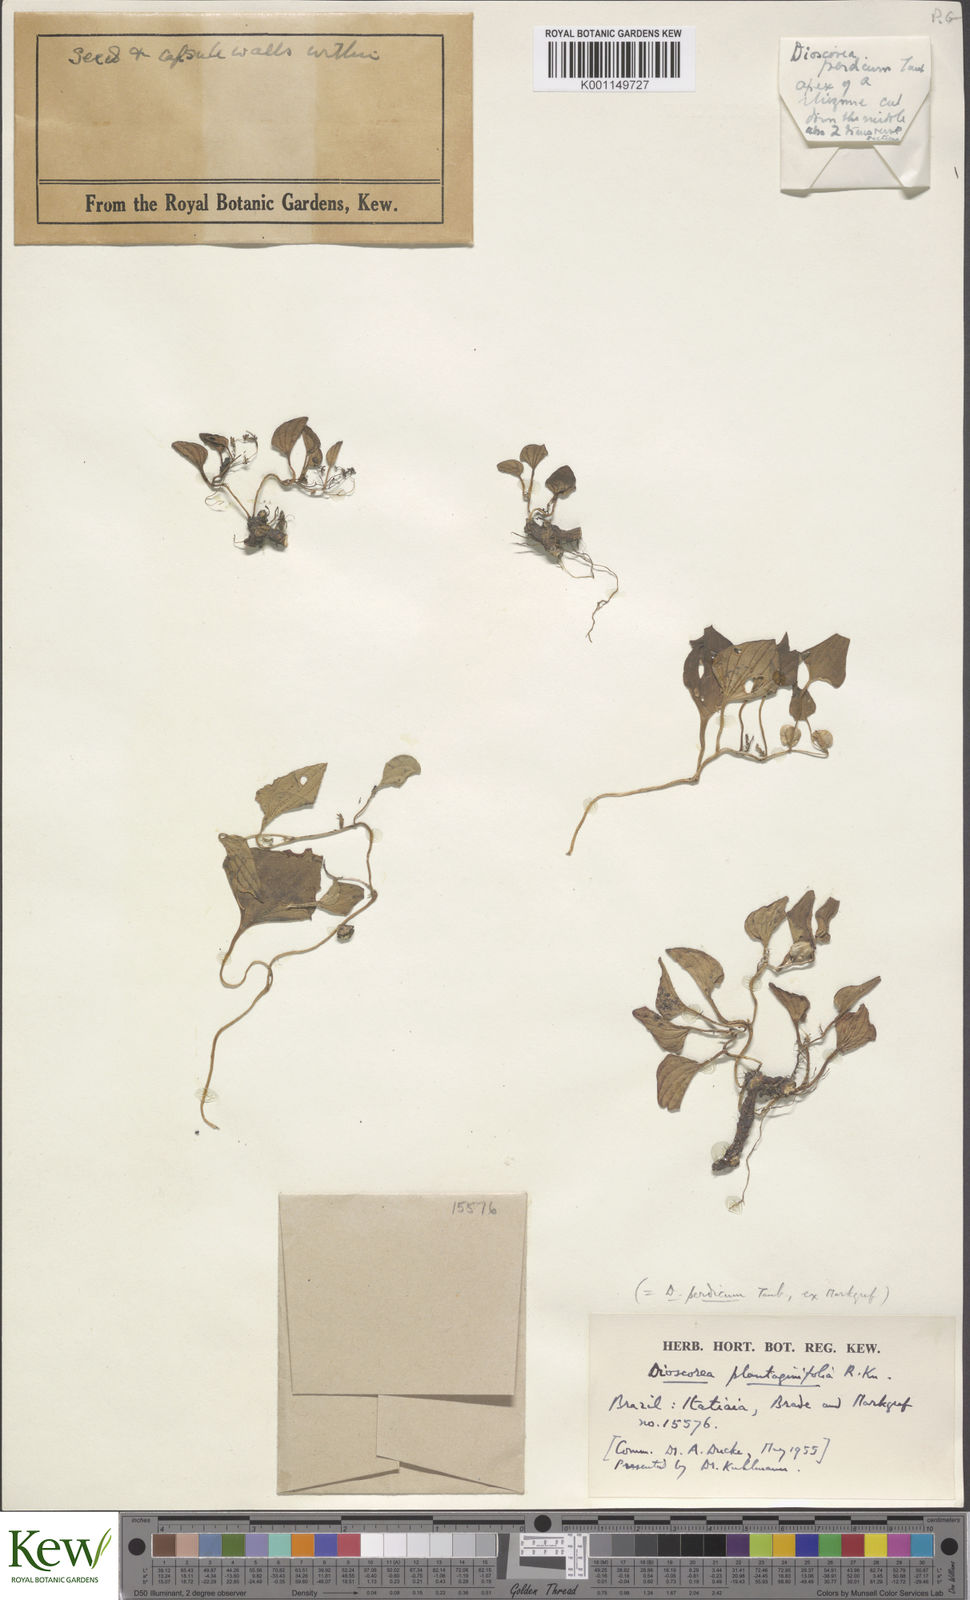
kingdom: Plantae
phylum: Tracheophyta
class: Liliopsida
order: Dioscoreales
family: Dioscoreaceae
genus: Dioscorea
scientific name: Dioscorea perdicum
